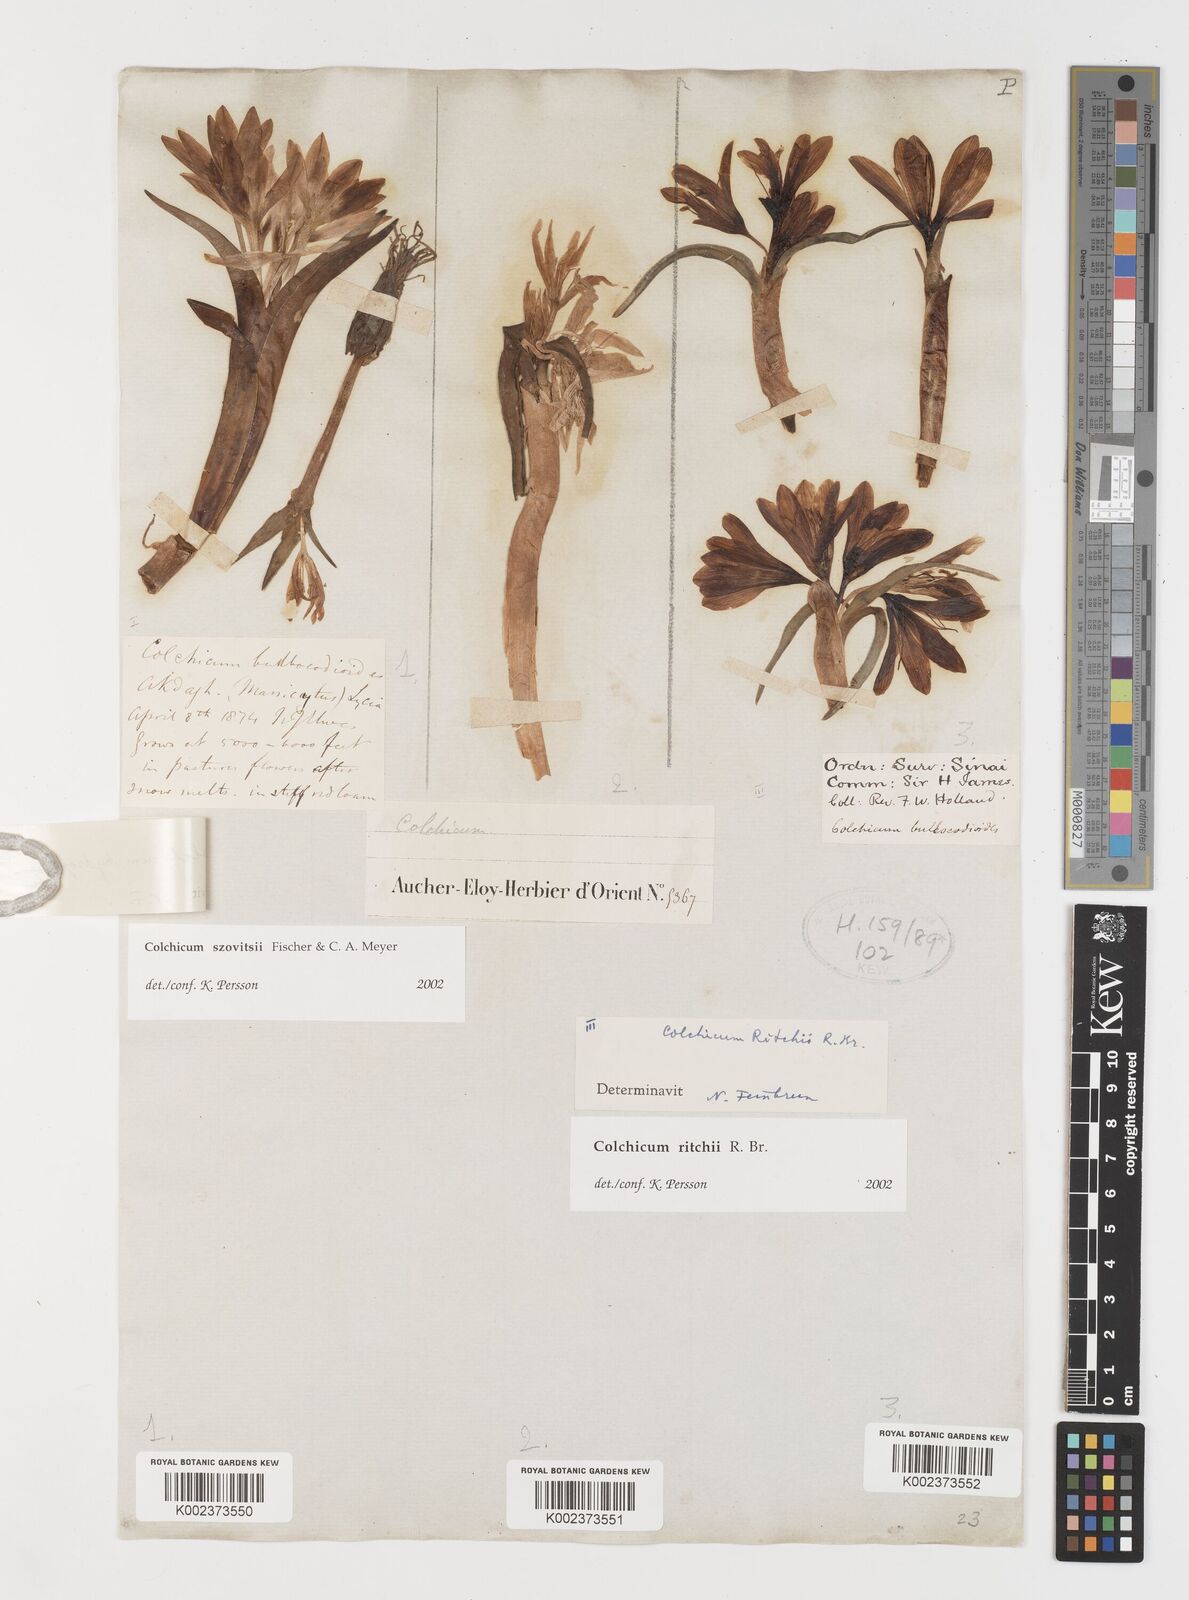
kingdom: Plantae
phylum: Tracheophyta
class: Liliopsida
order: Liliales
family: Colchicaceae
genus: Colchicum
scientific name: Colchicum ritchii
